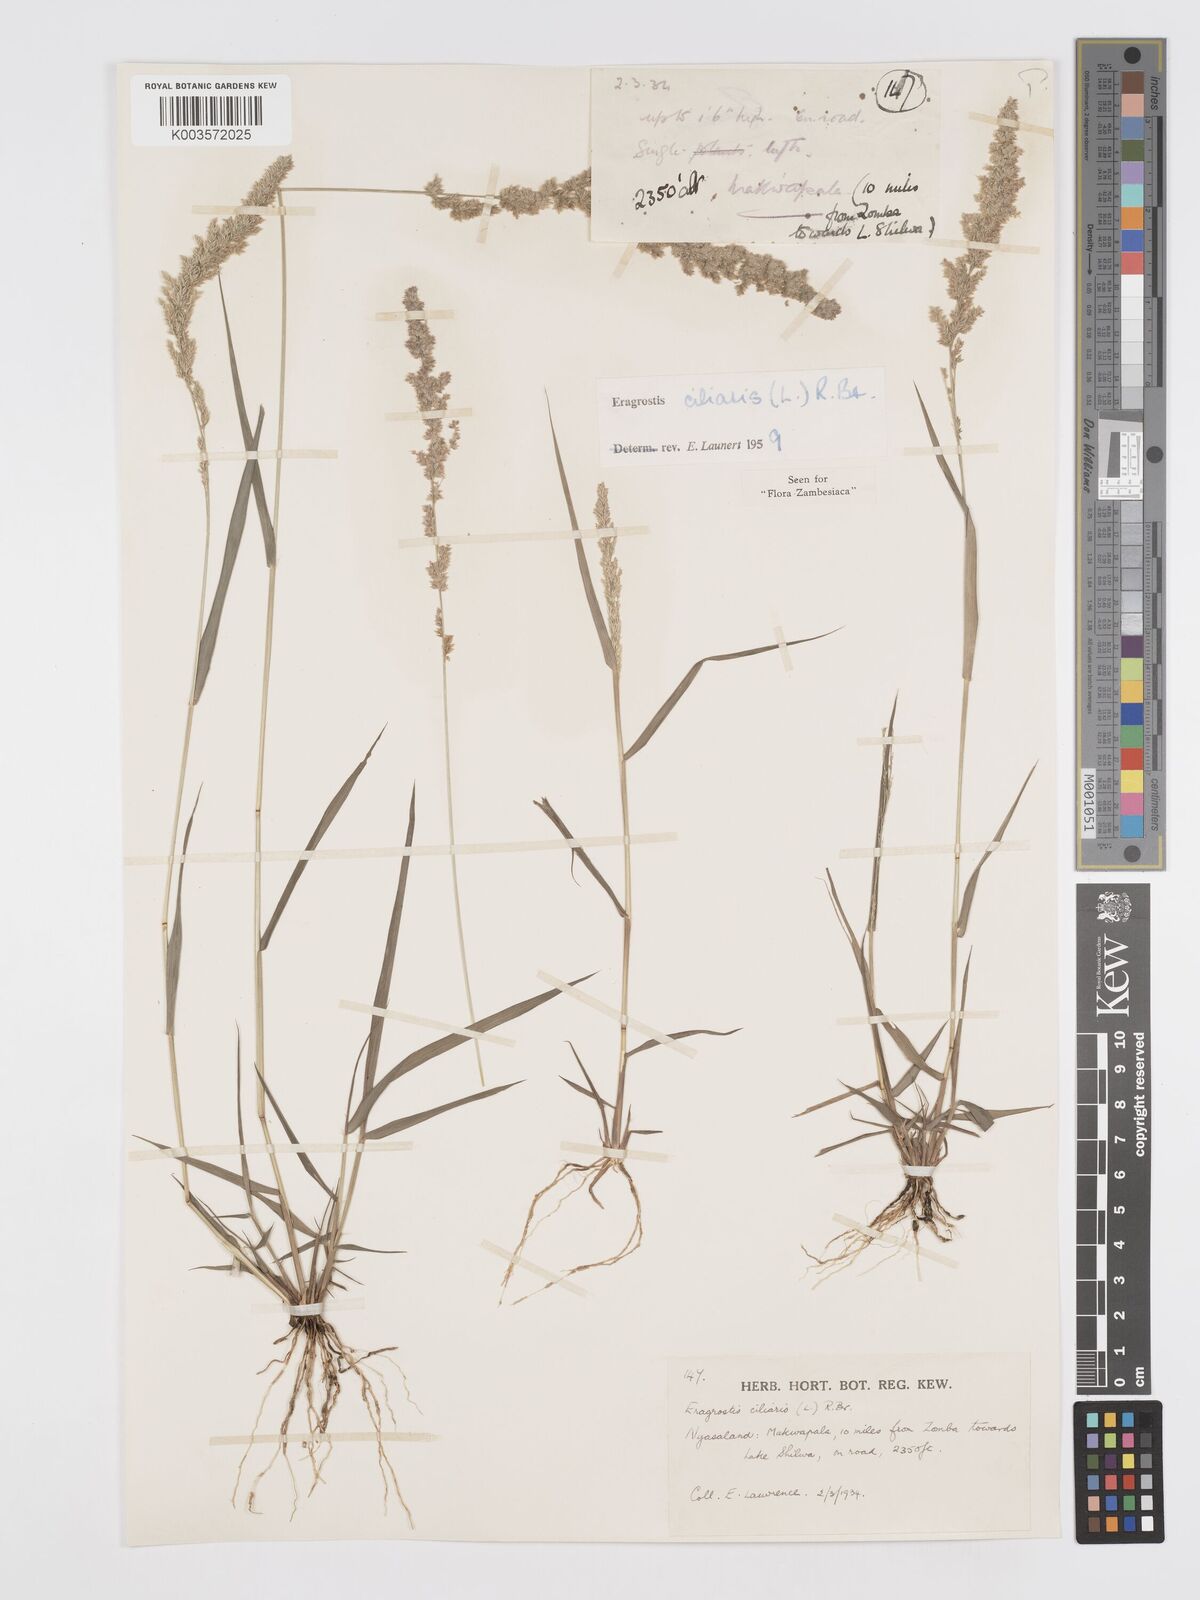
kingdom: Plantae
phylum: Tracheophyta
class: Liliopsida
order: Poales
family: Poaceae
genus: Eragrostis
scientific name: Eragrostis ciliaris
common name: Gophertail lovegrass
